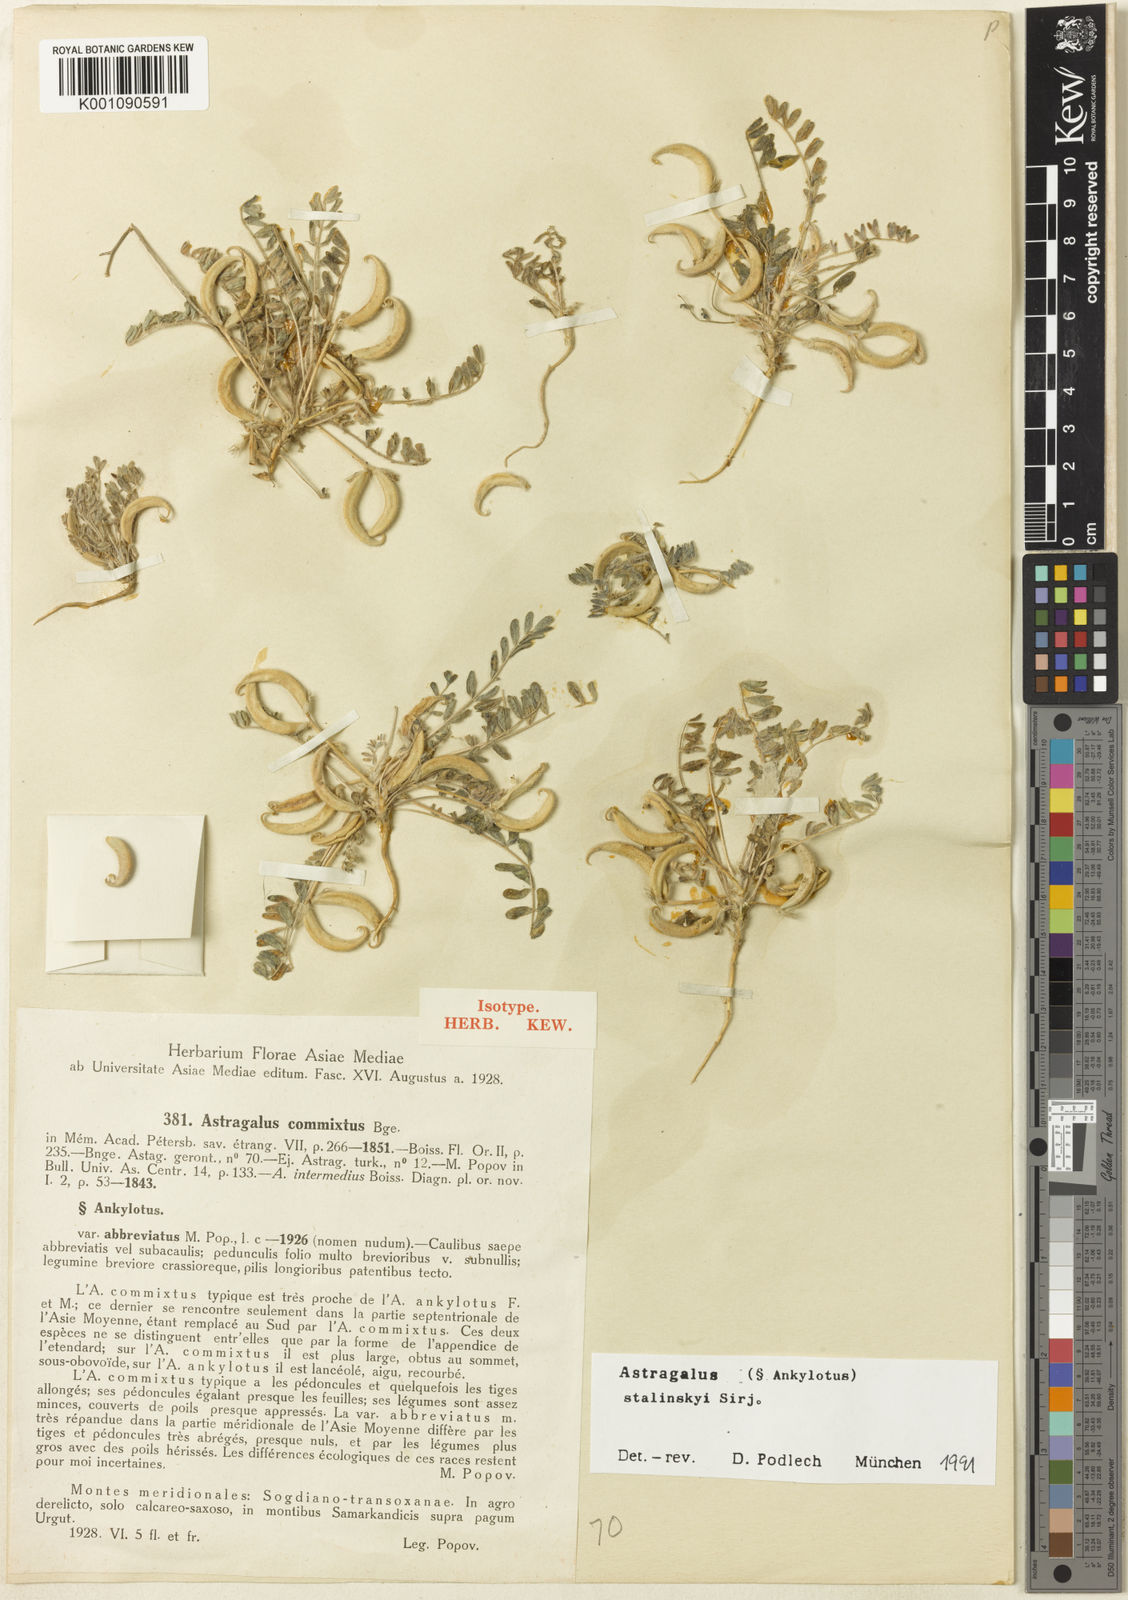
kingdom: Plantae
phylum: Tracheophyta
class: Magnoliopsida
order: Fabales
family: Fabaceae
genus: Astragalus
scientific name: Astragalus
